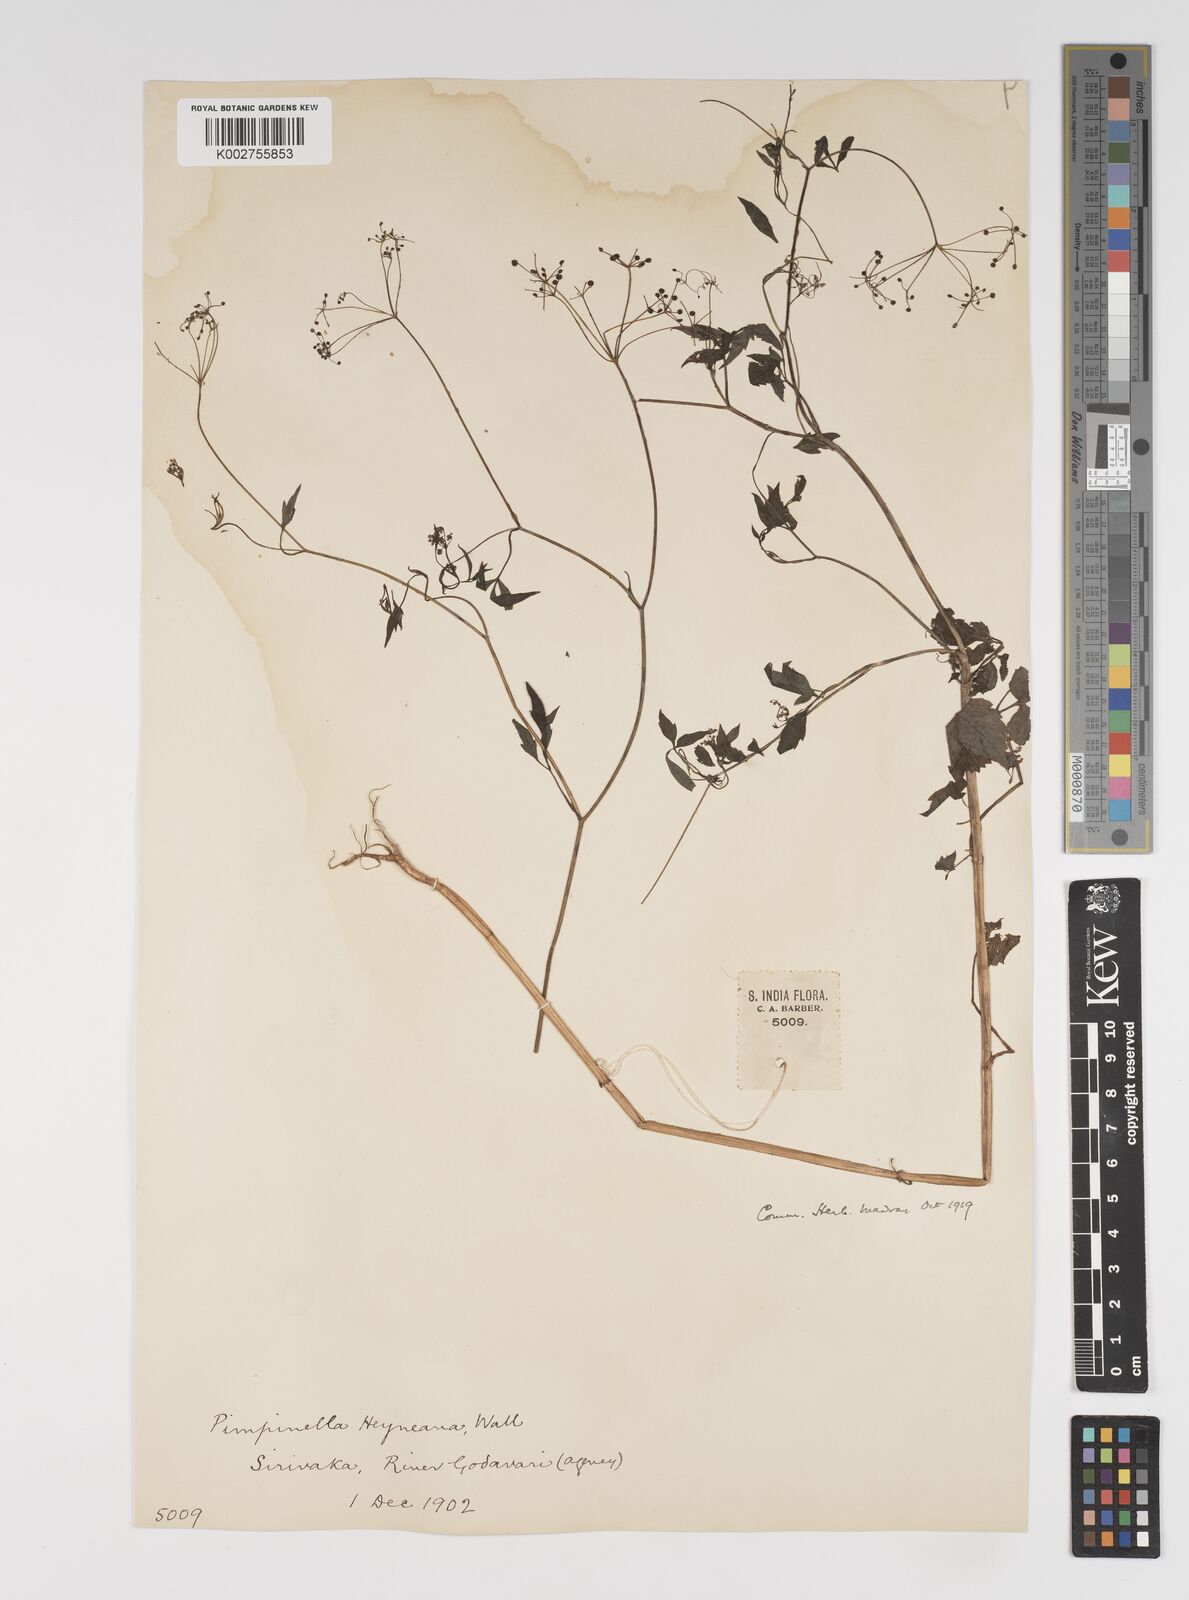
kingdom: Plantae
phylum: Tracheophyta
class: Magnoliopsida
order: Apiales
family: Apiaceae
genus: Pimpinella
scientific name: Pimpinella heyneana
